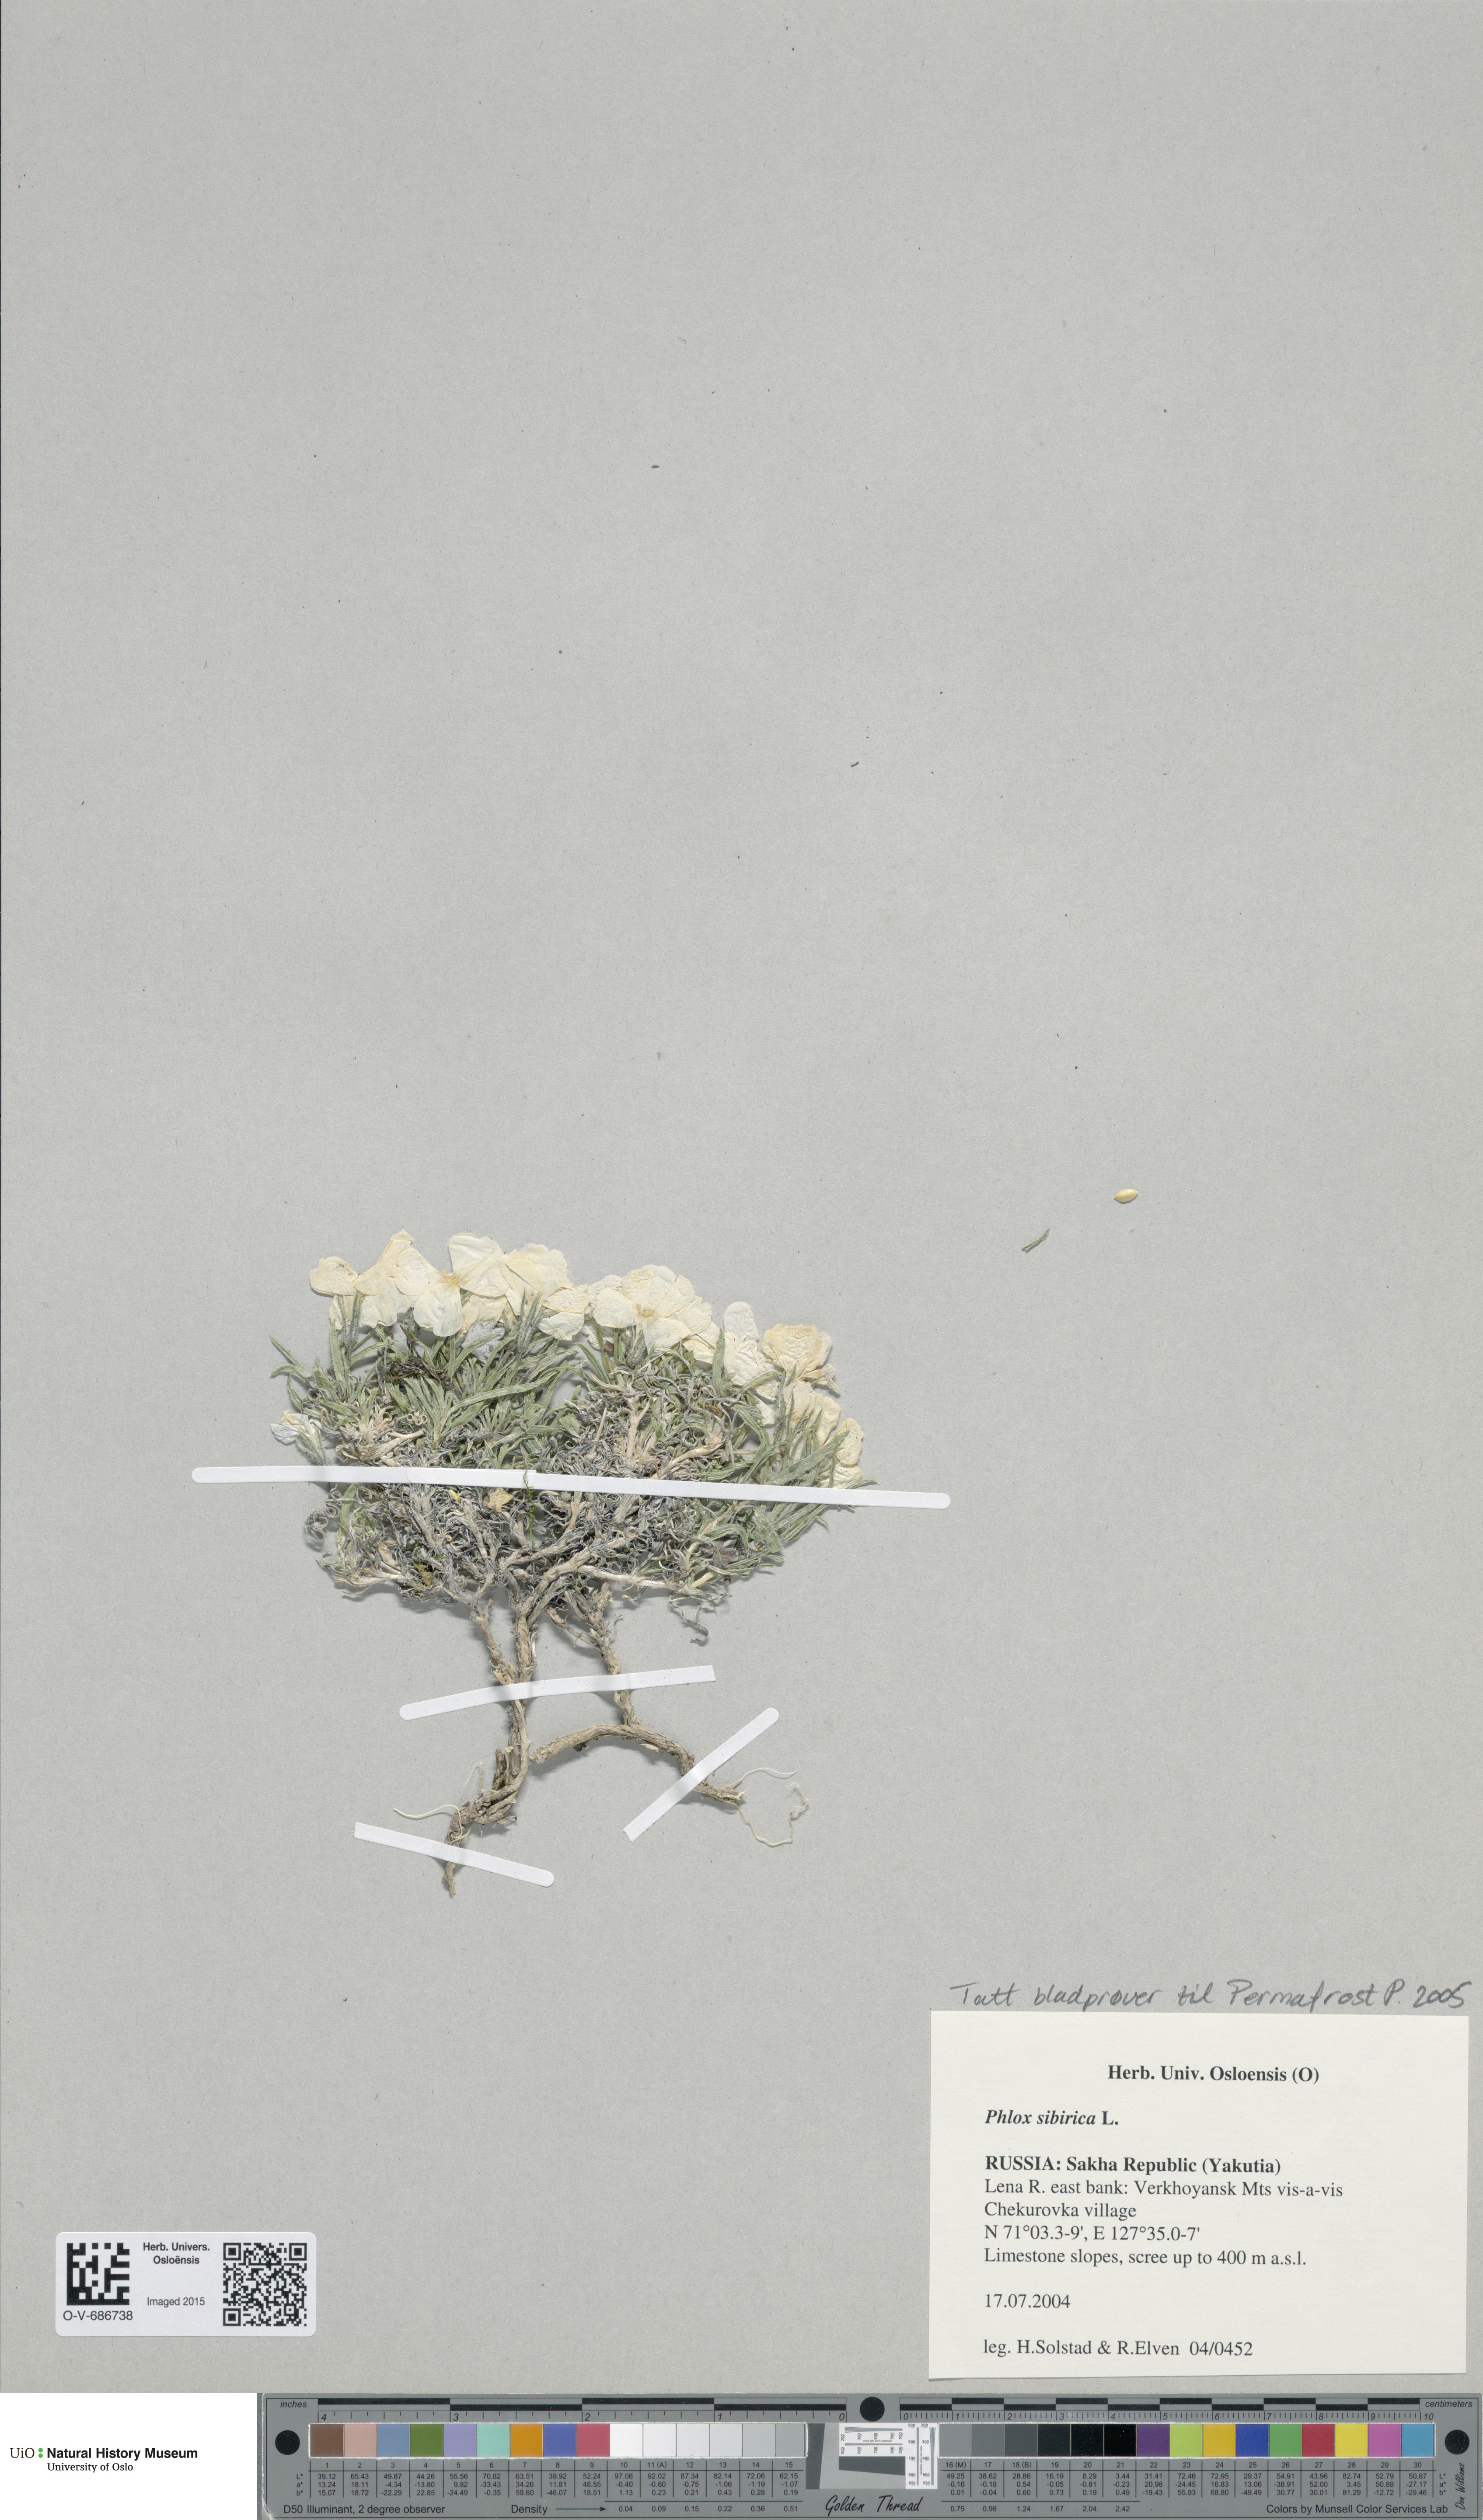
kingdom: Plantae
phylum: Tracheophyta
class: Magnoliopsida
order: Ericales
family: Polemoniaceae
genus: Phlox
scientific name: Phlox sibirica
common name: Siberian phlox
